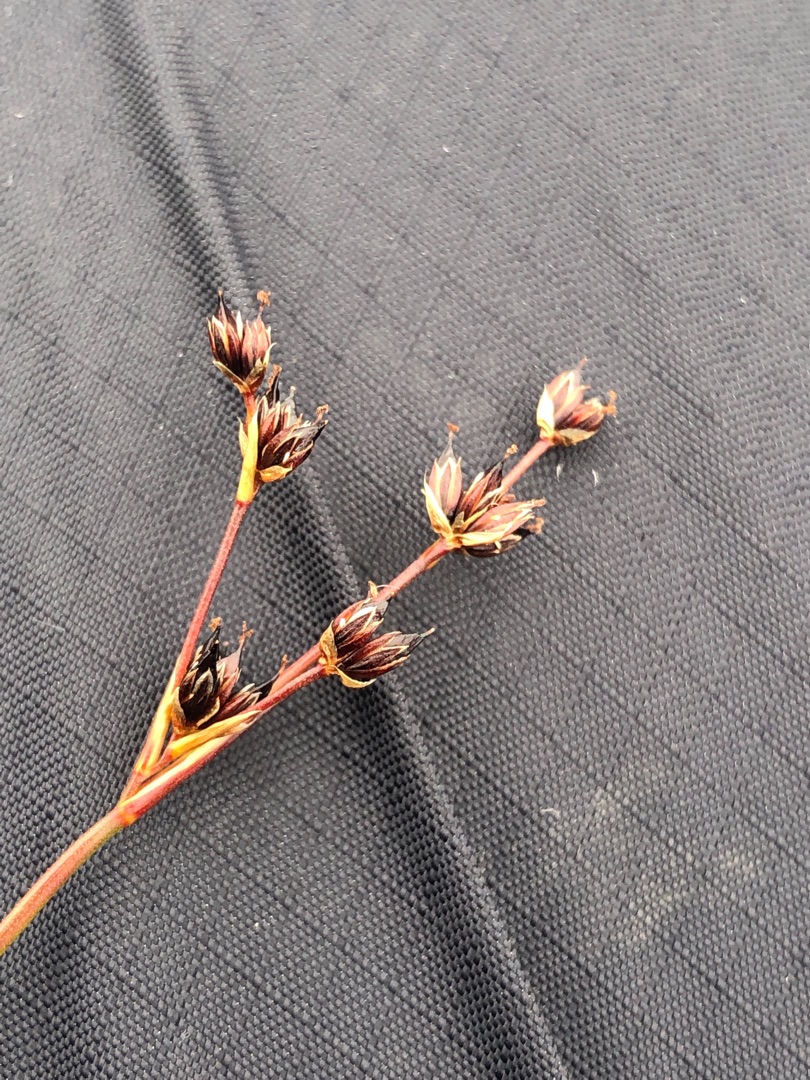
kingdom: Plantae
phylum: Tracheophyta
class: Liliopsida
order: Poales
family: Juncaceae
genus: Juncus
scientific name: Juncus articulatus
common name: Glanskapslet siv
